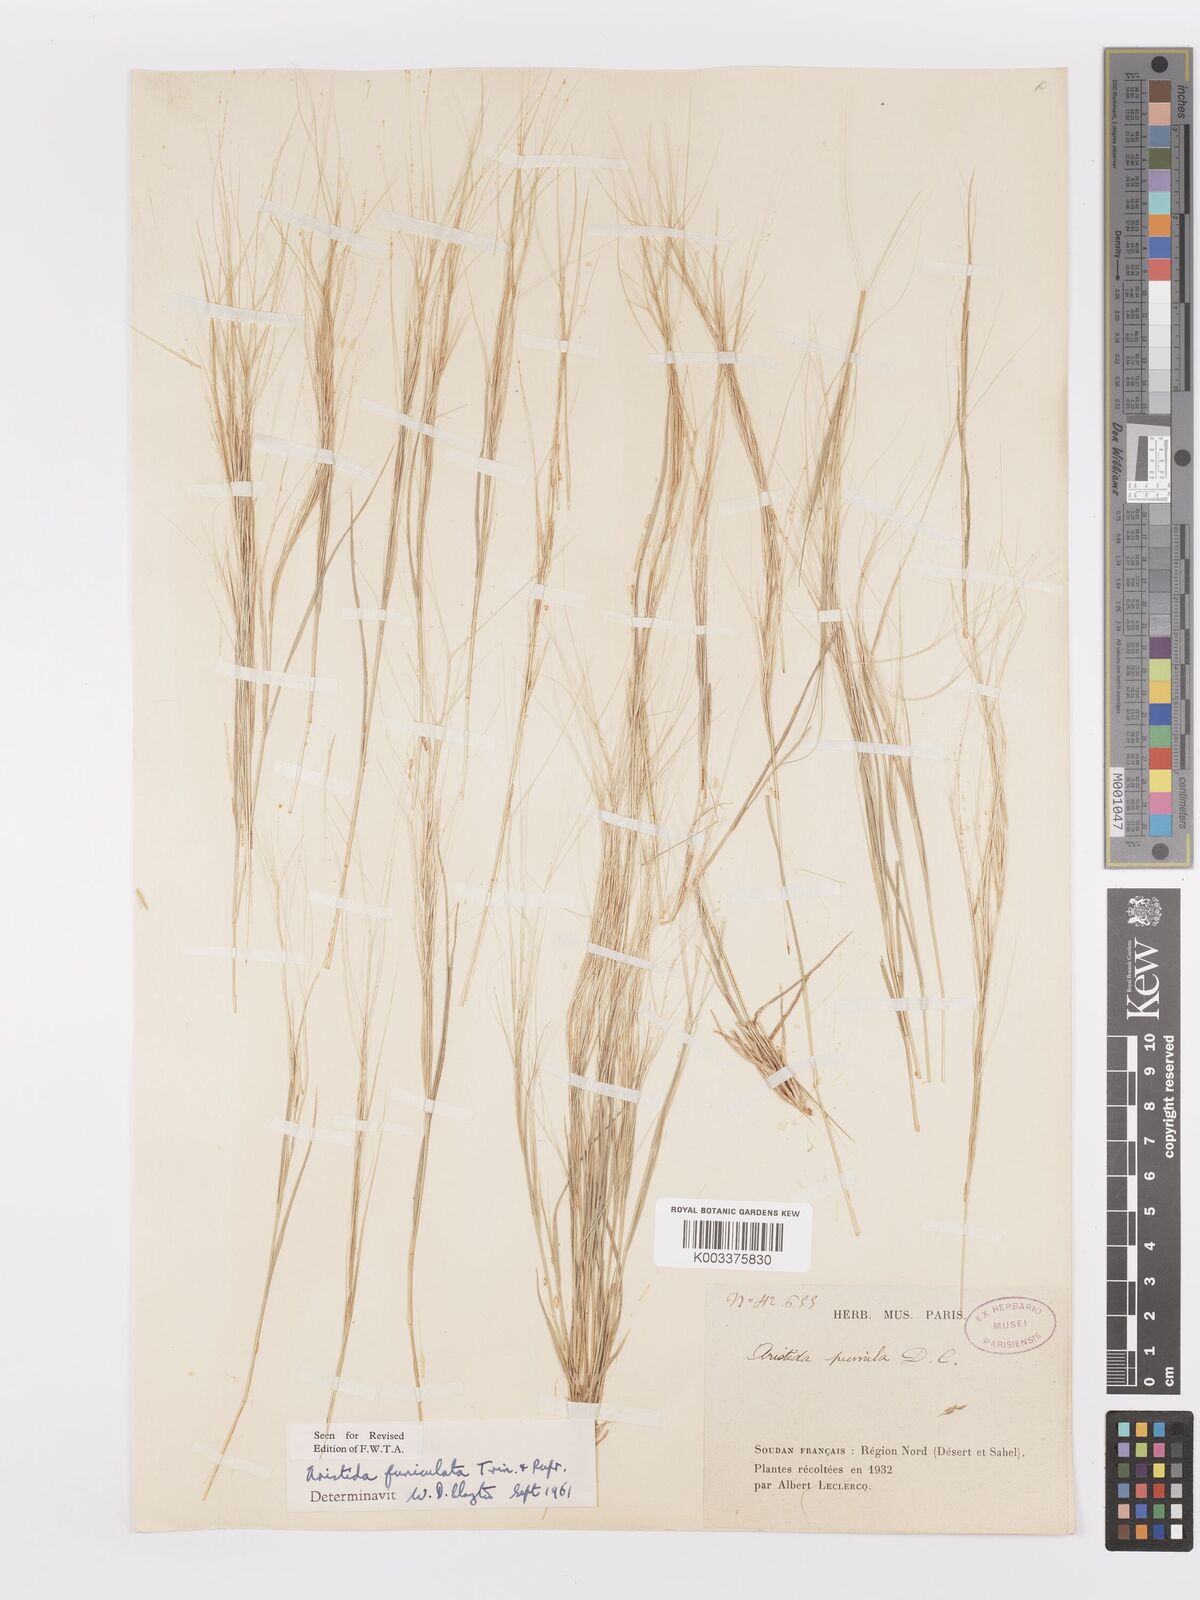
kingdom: Plantae
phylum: Tracheophyta
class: Liliopsida
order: Poales
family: Poaceae
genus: Aristida
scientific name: Aristida funiculata
